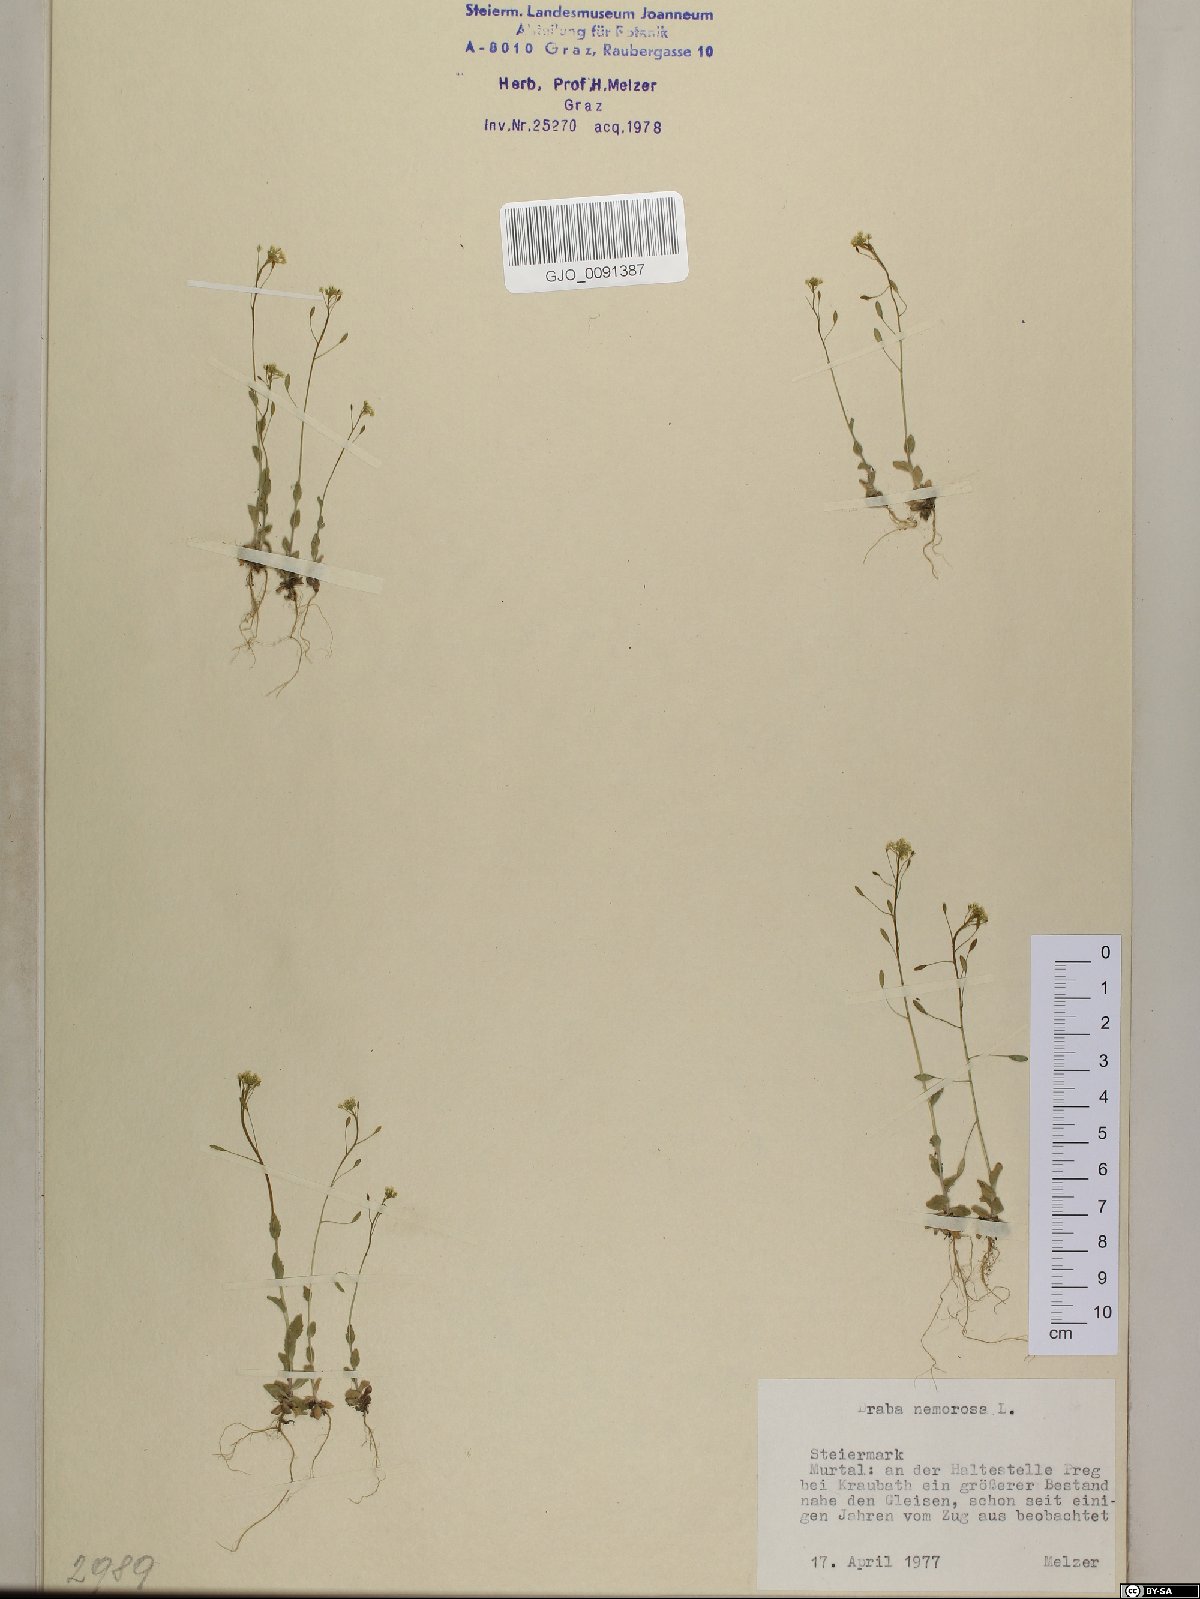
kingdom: Plantae
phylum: Tracheophyta
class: Magnoliopsida
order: Brassicales
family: Brassicaceae
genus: Draba
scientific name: Draba nemorosa
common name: Wood whitlow-grass
